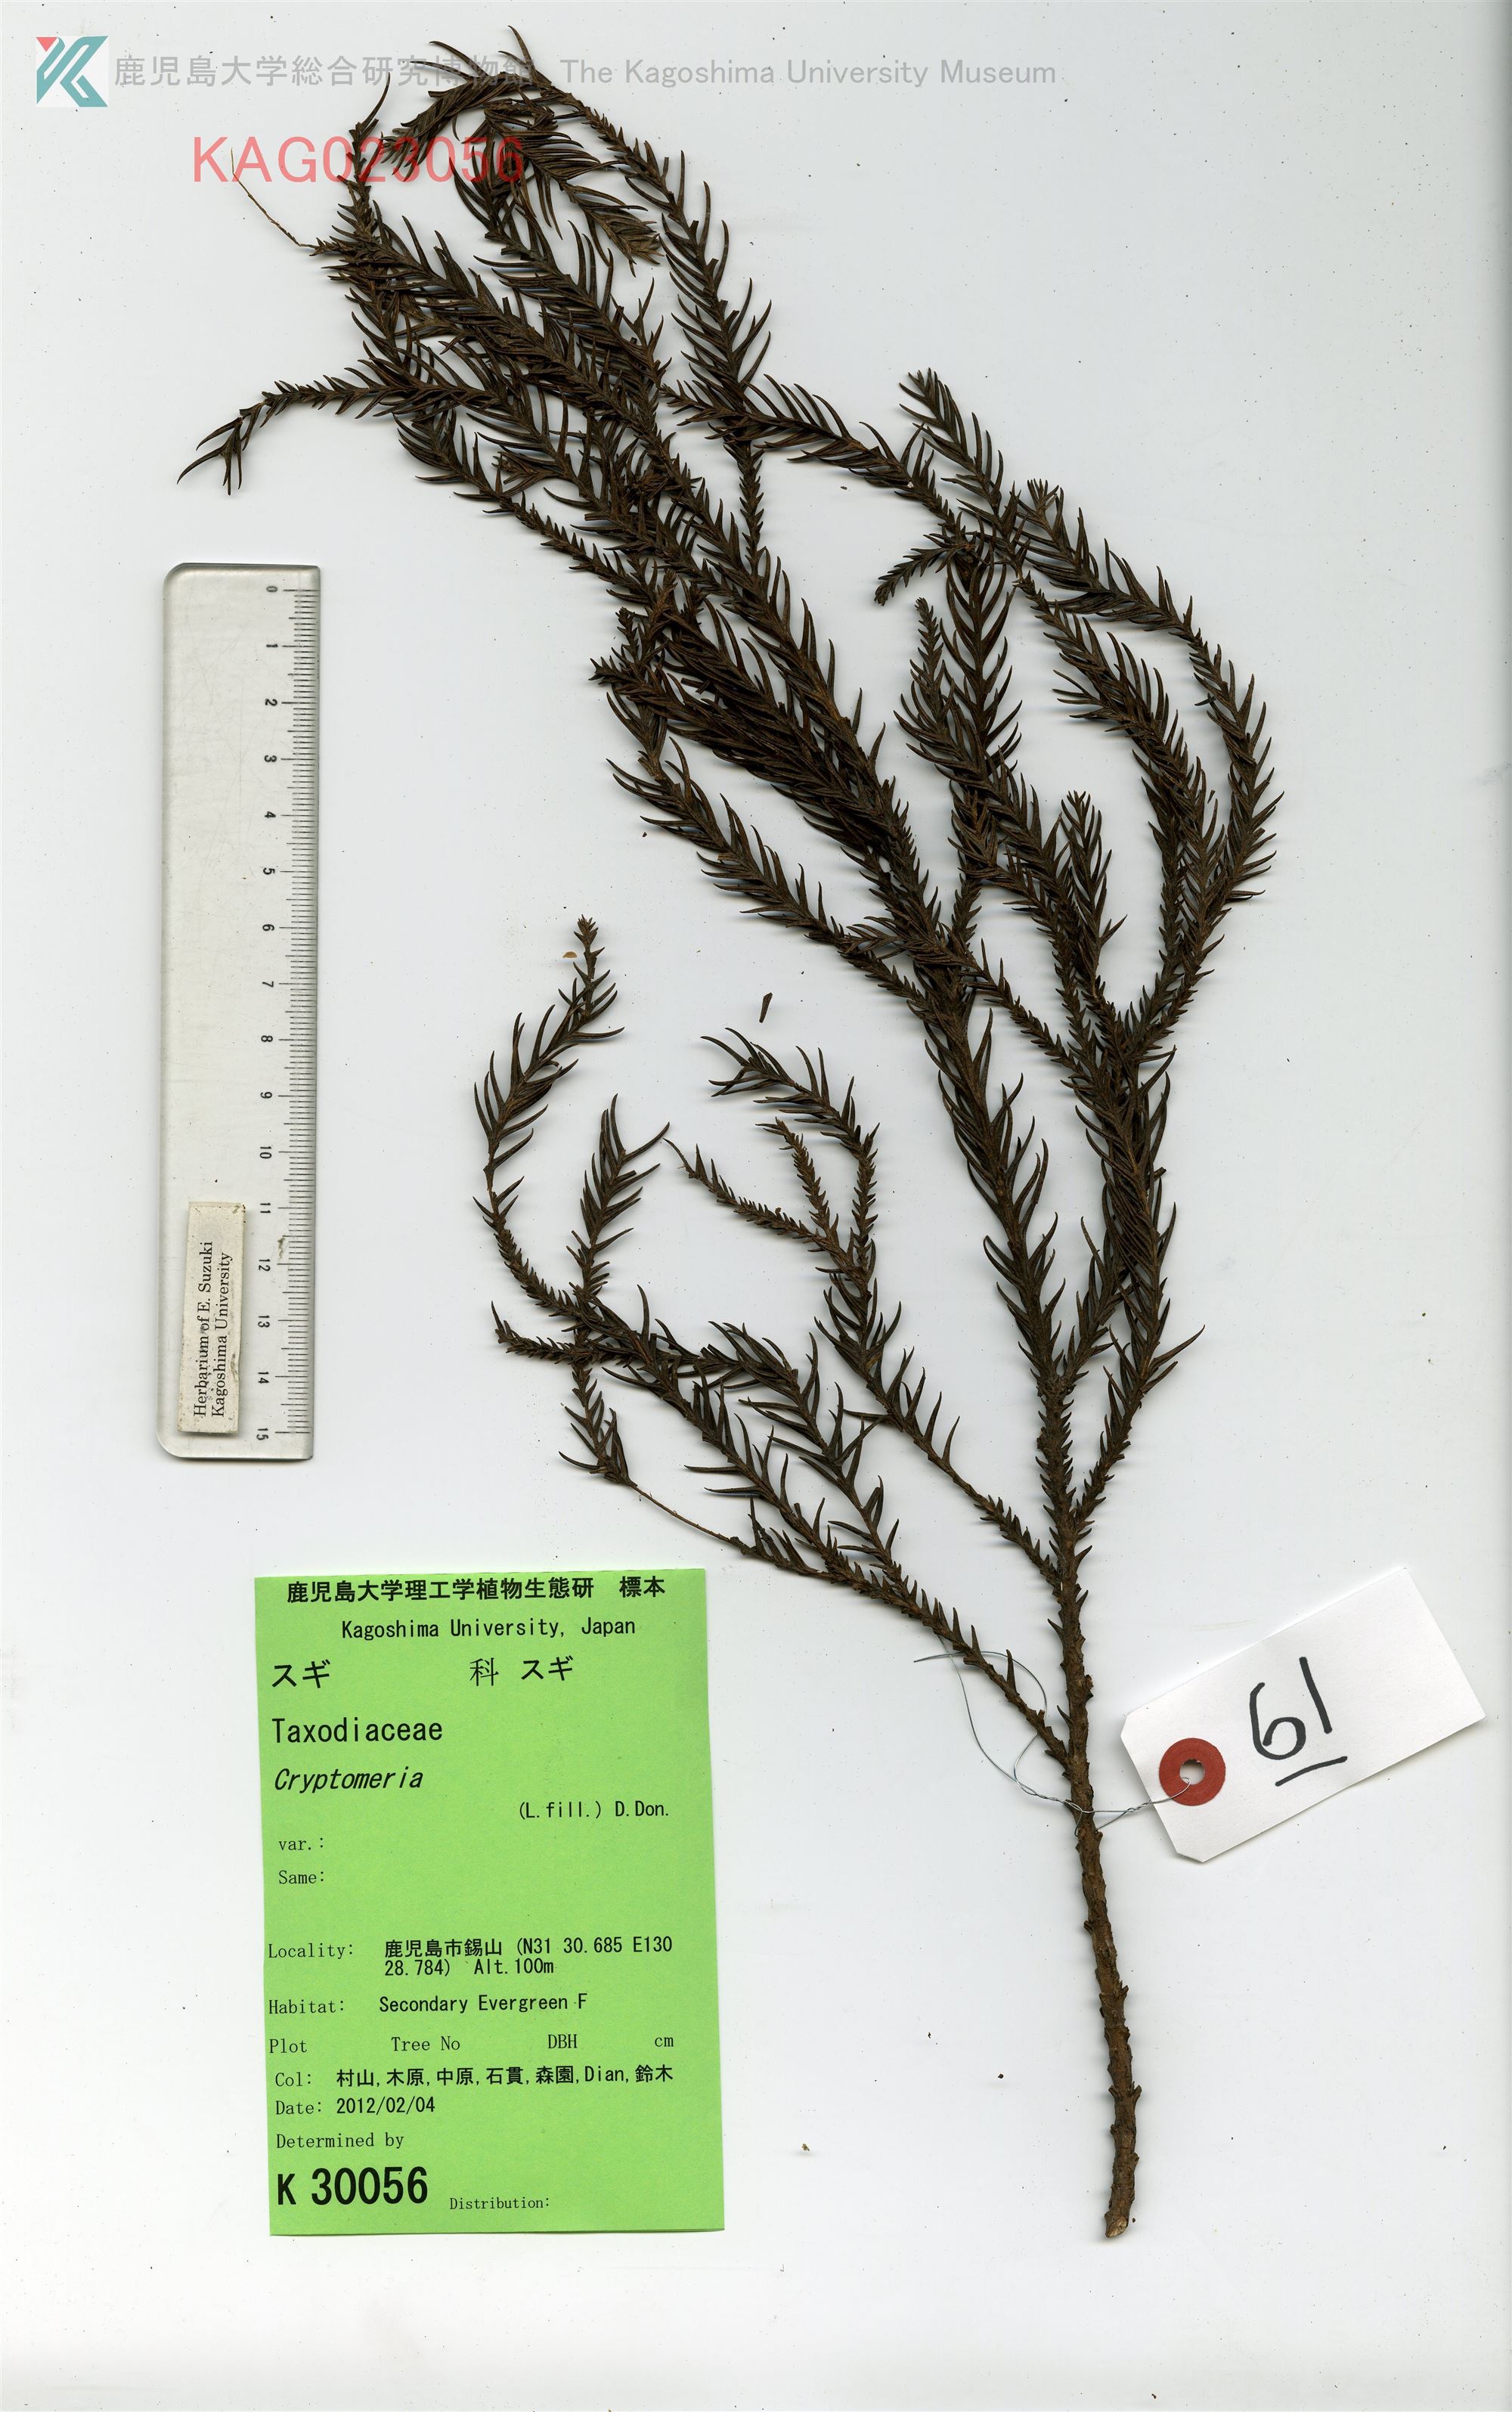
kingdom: Plantae
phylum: Tracheophyta
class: Pinopsida
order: Pinales
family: Cupressaceae
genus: Cryptomeria
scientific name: Cryptomeria japonica
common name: スギ
